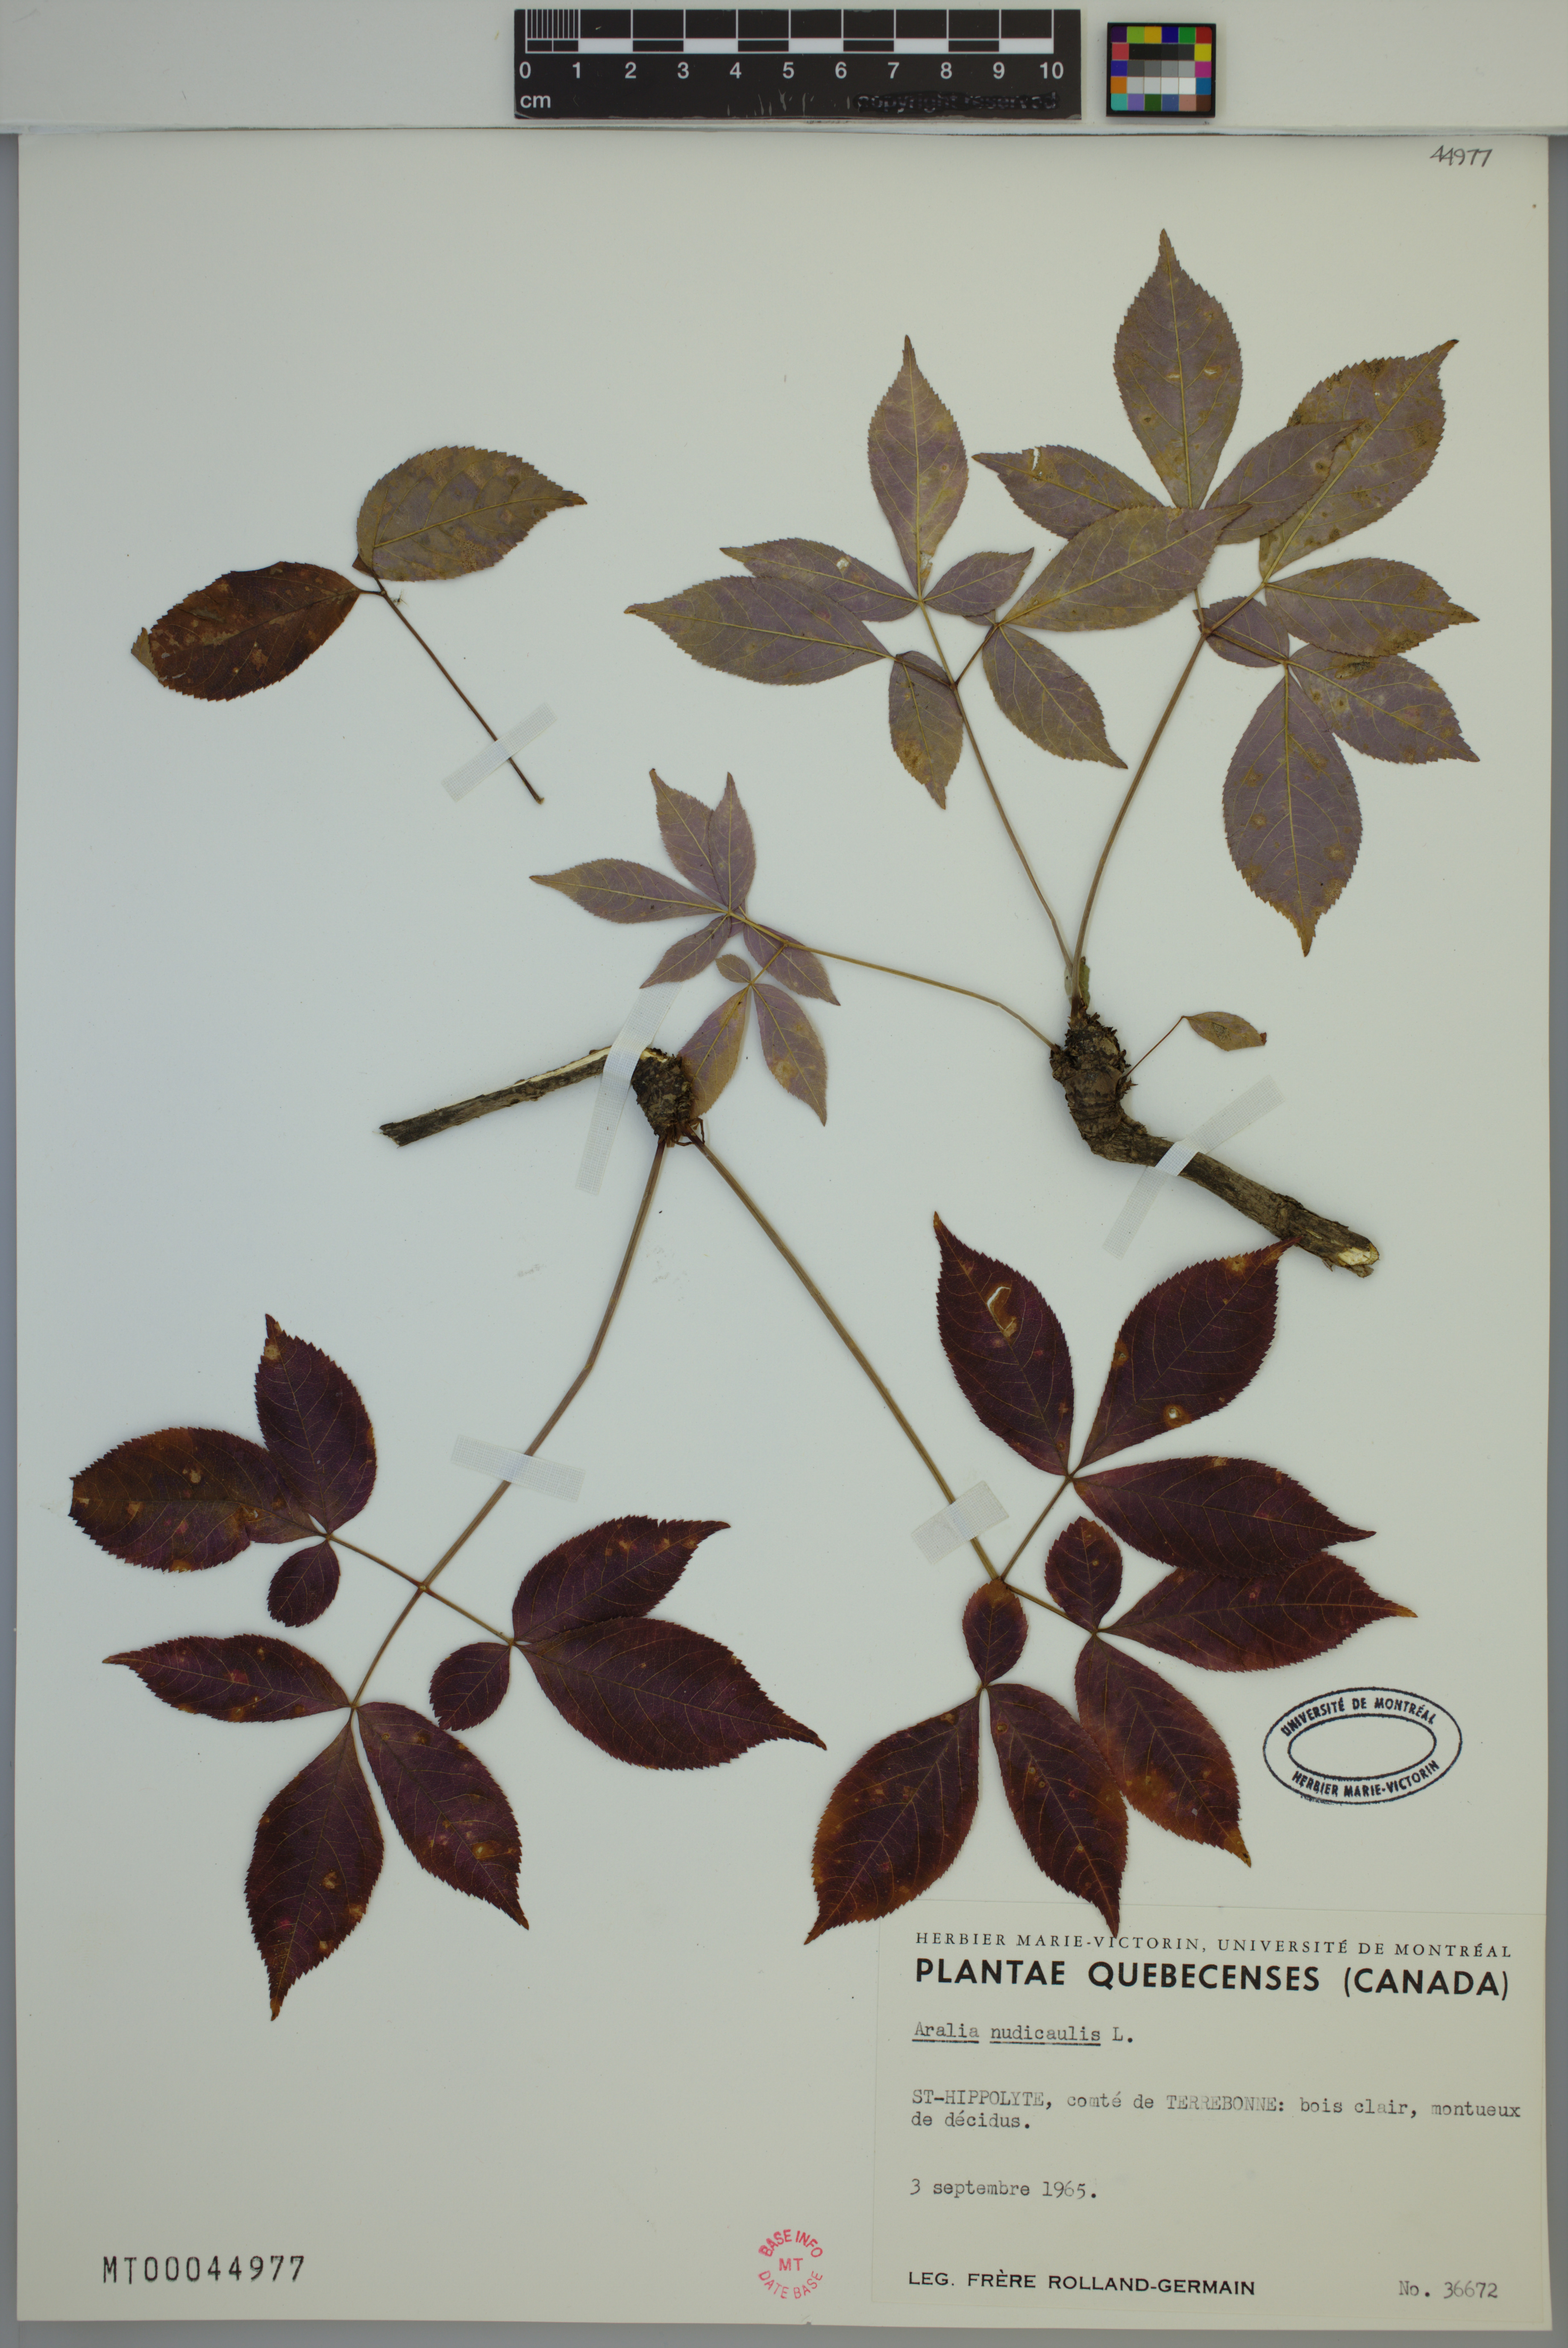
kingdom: Plantae
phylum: Tracheophyta
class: Magnoliopsida
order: Apiales
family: Araliaceae
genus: Aralia
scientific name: Aralia nudicaulis
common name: Wild sarsaparilla
